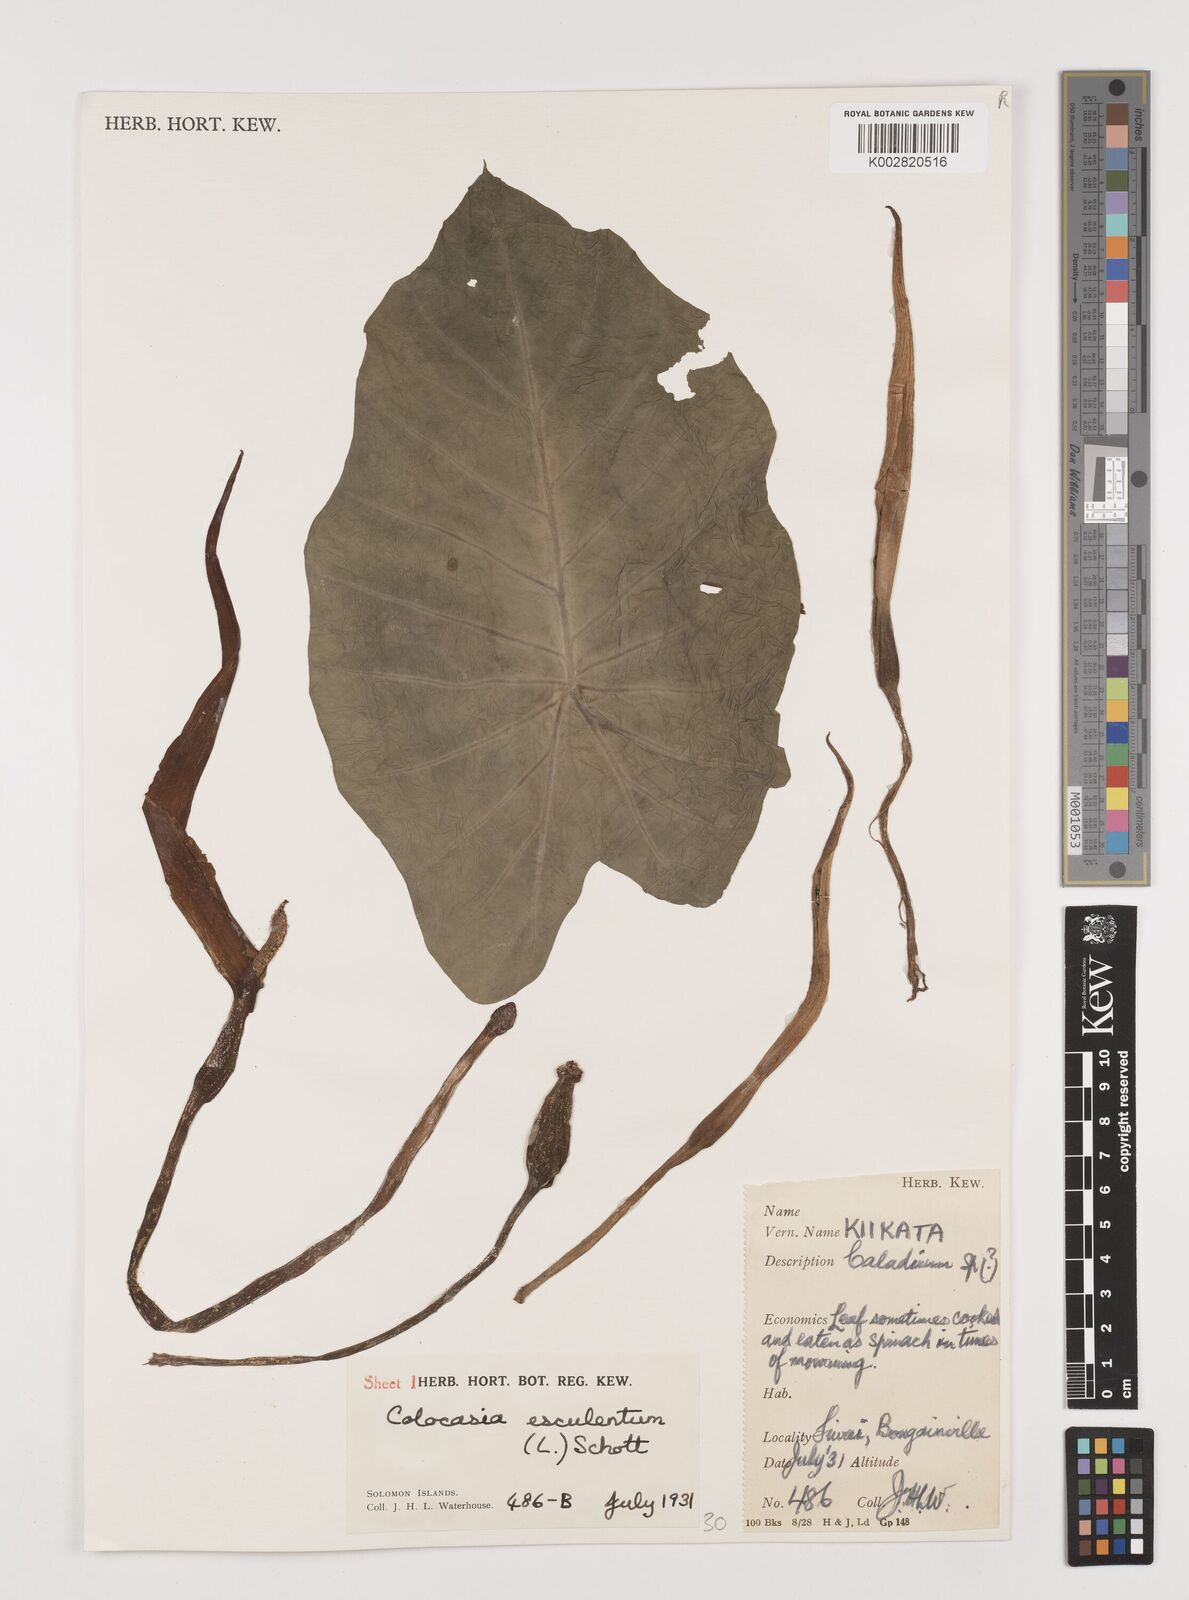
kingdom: Plantae
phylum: Tracheophyta
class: Liliopsida
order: Alismatales
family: Araceae
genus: Colocasia
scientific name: Colocasia esculenta
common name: Taro
